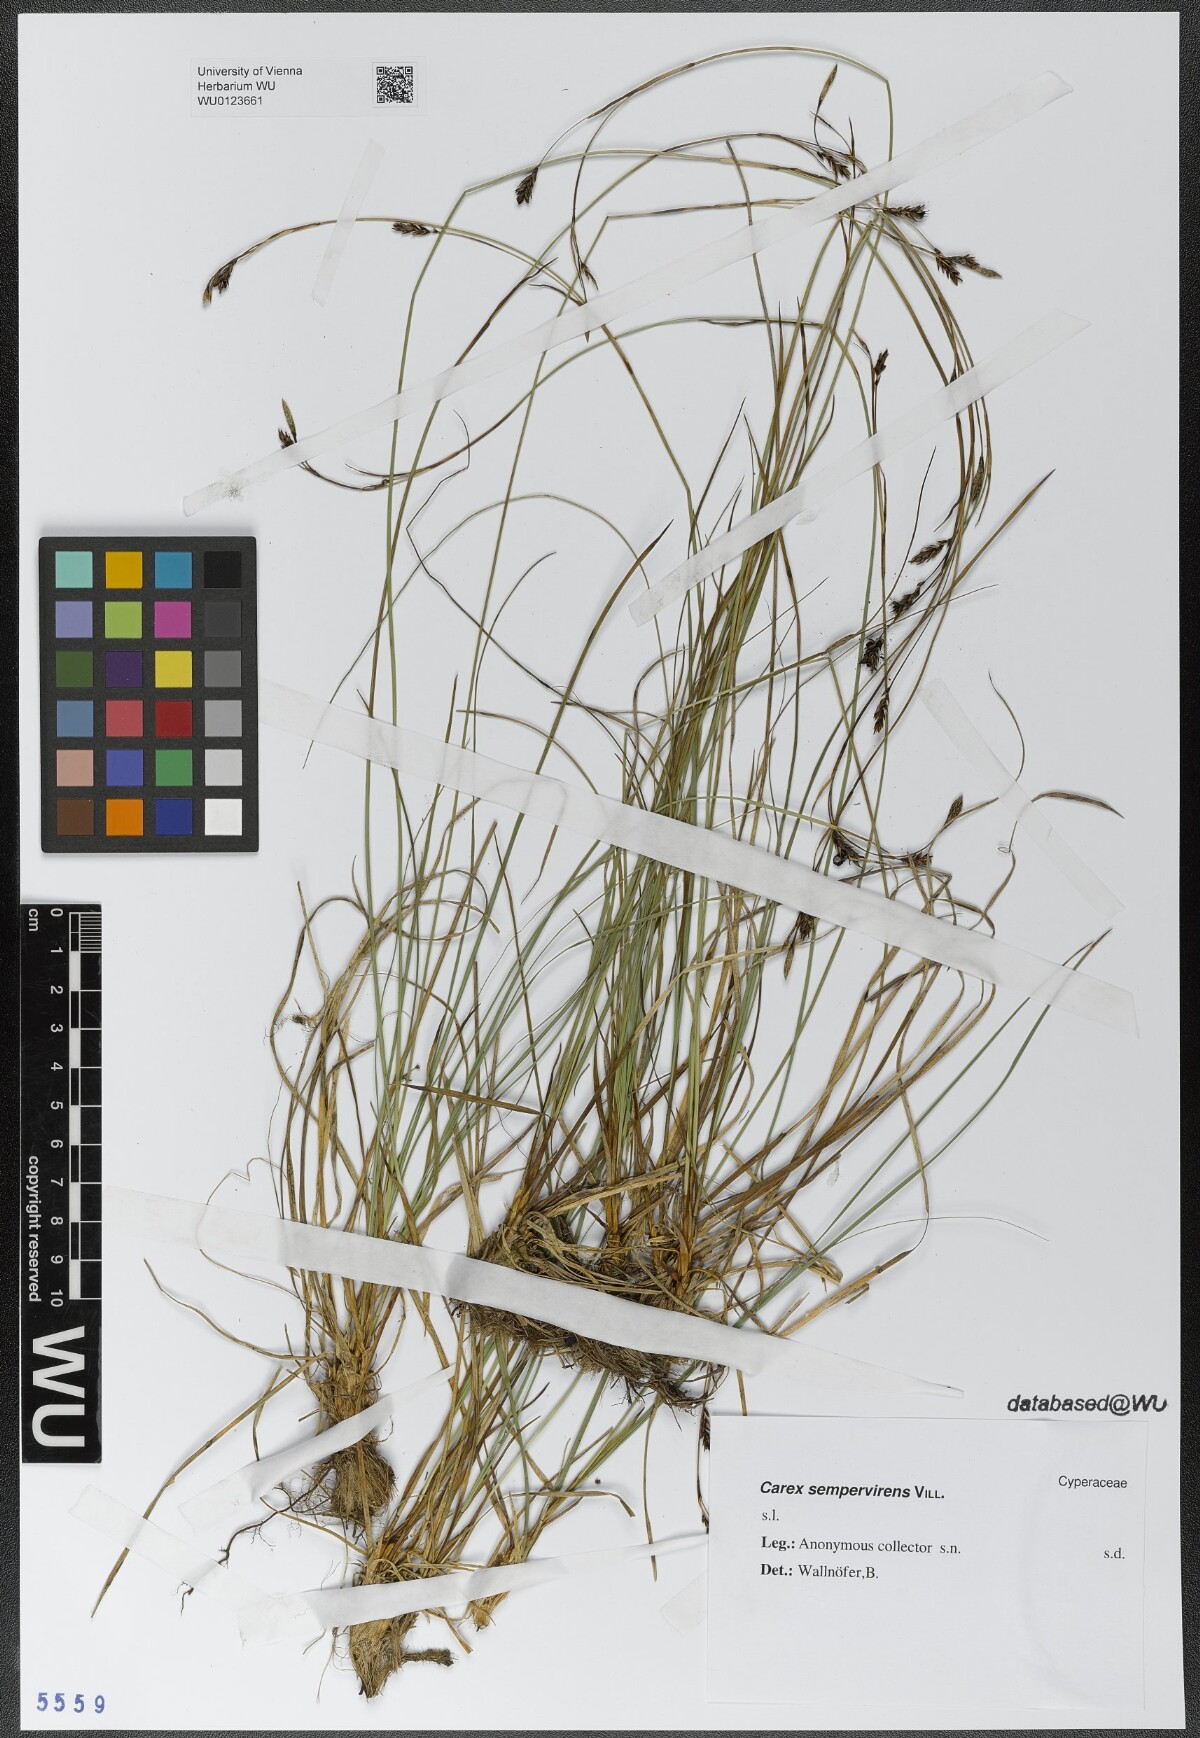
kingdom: Plantae
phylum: Tracheophyta
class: Liliopsida
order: Poales
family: Cyperaceae
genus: Carex
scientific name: Carex sempervirens
